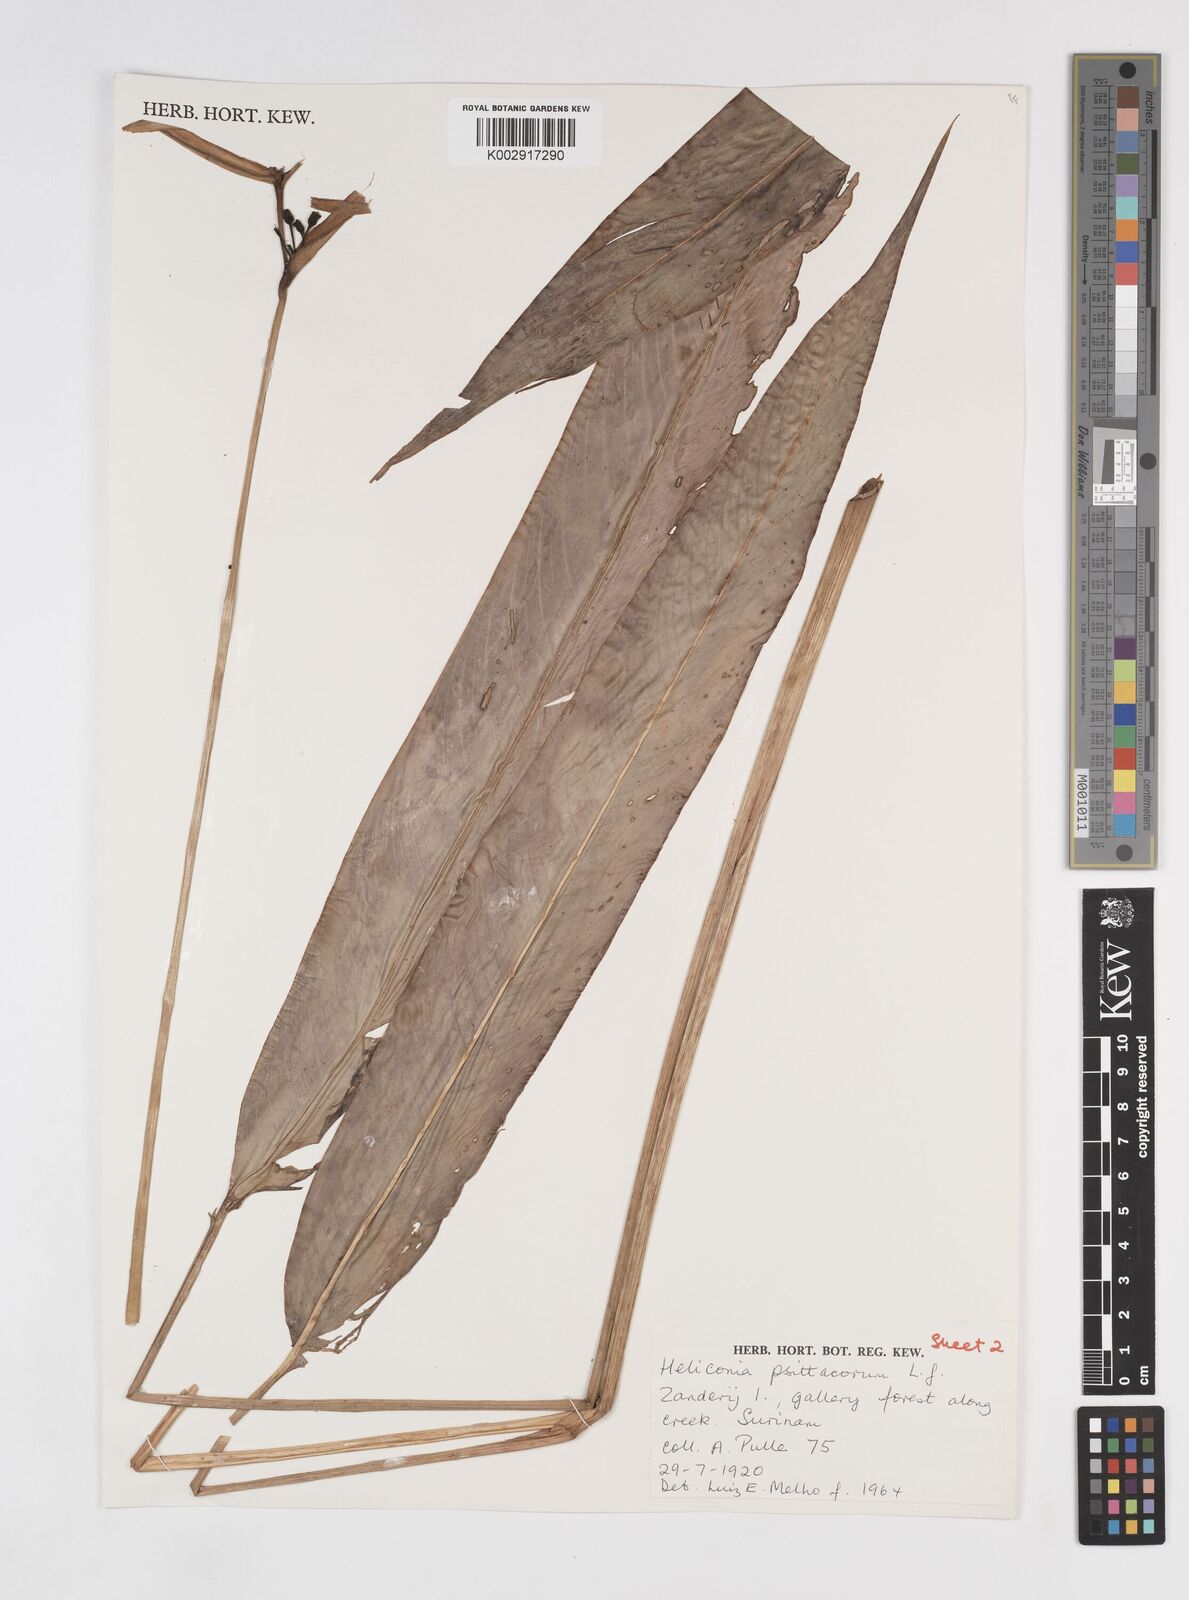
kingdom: Plantae
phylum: Tracheophyta
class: Liliopsida
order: Zingiberales
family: Heliconiaceae
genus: Heliconia
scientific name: Heliconia psittacorum
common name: Parrot's-flower
